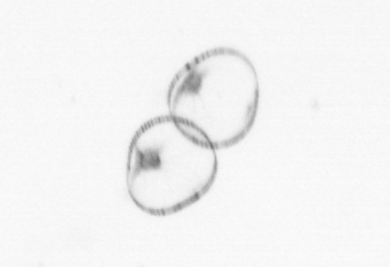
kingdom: Chromista
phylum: Myzozoa
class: Dinophyceae
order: Noctilucales
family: Noctilucaceae
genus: Noctiluca
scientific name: Noctiluca scintillans
